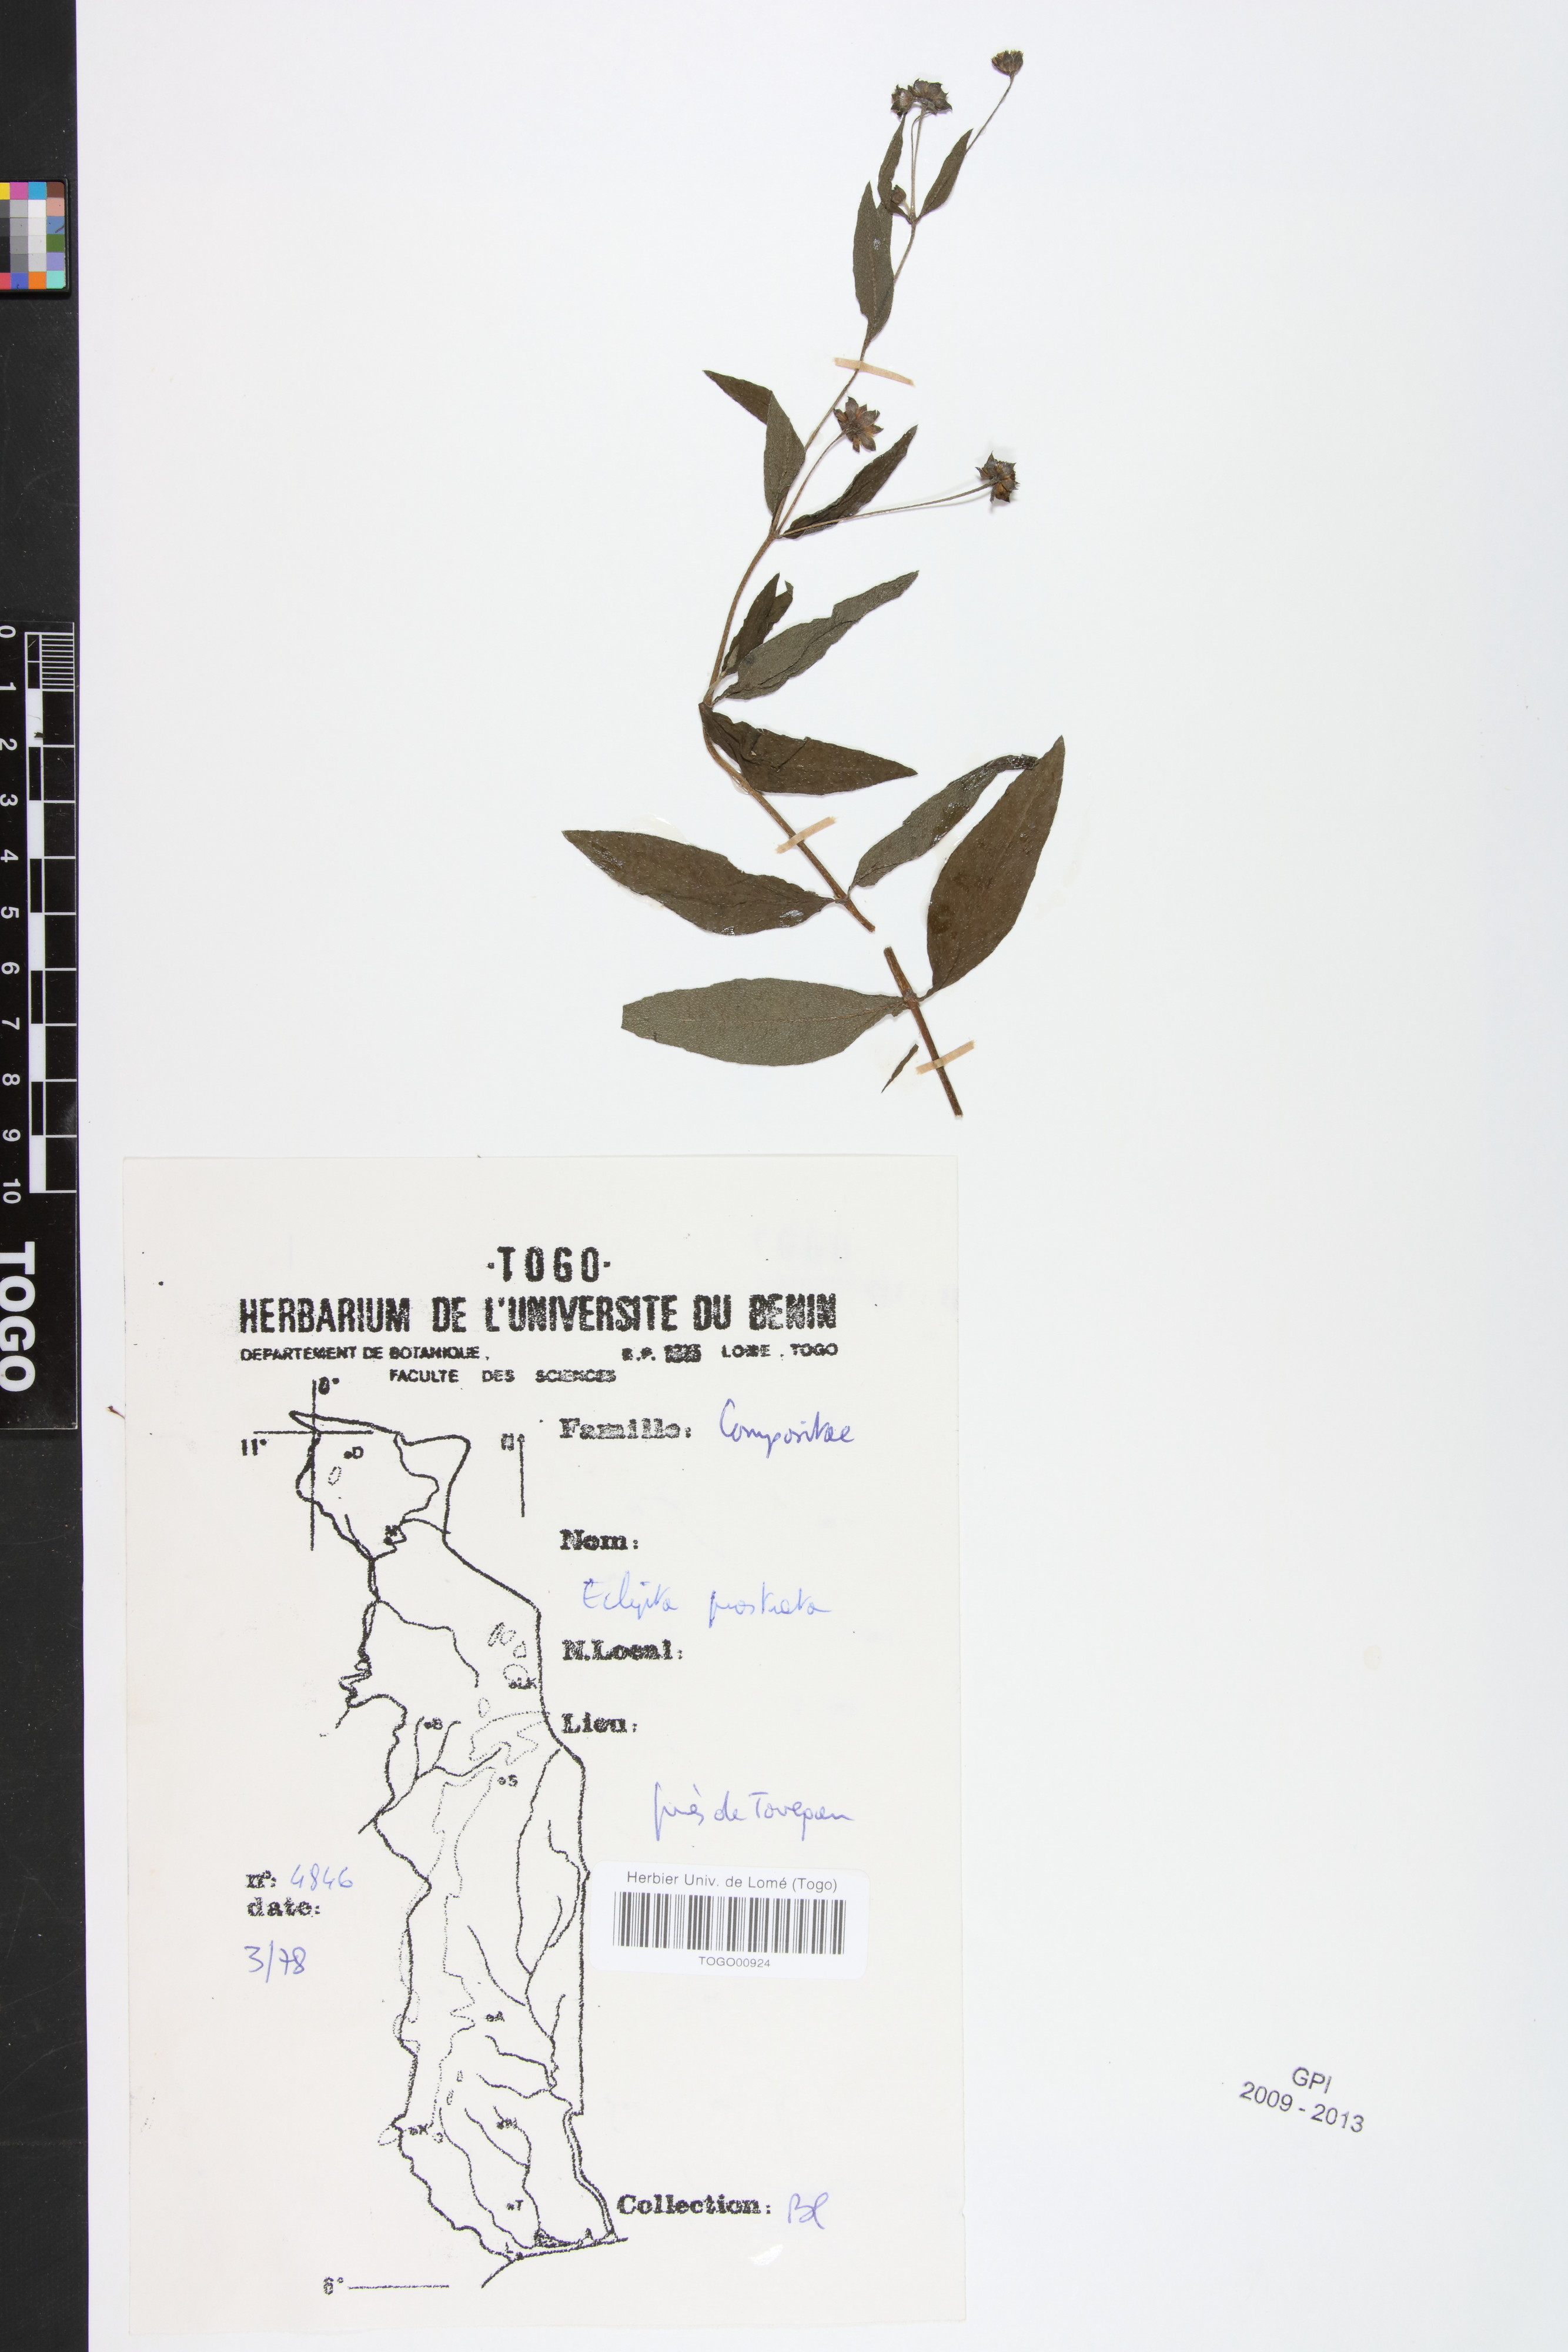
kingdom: Plantae
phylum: Tracheophyta
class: Magnoliopsida
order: Asterales
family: Asteraceae
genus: Eclipta
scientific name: Eclipta prostrata
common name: False daisy
